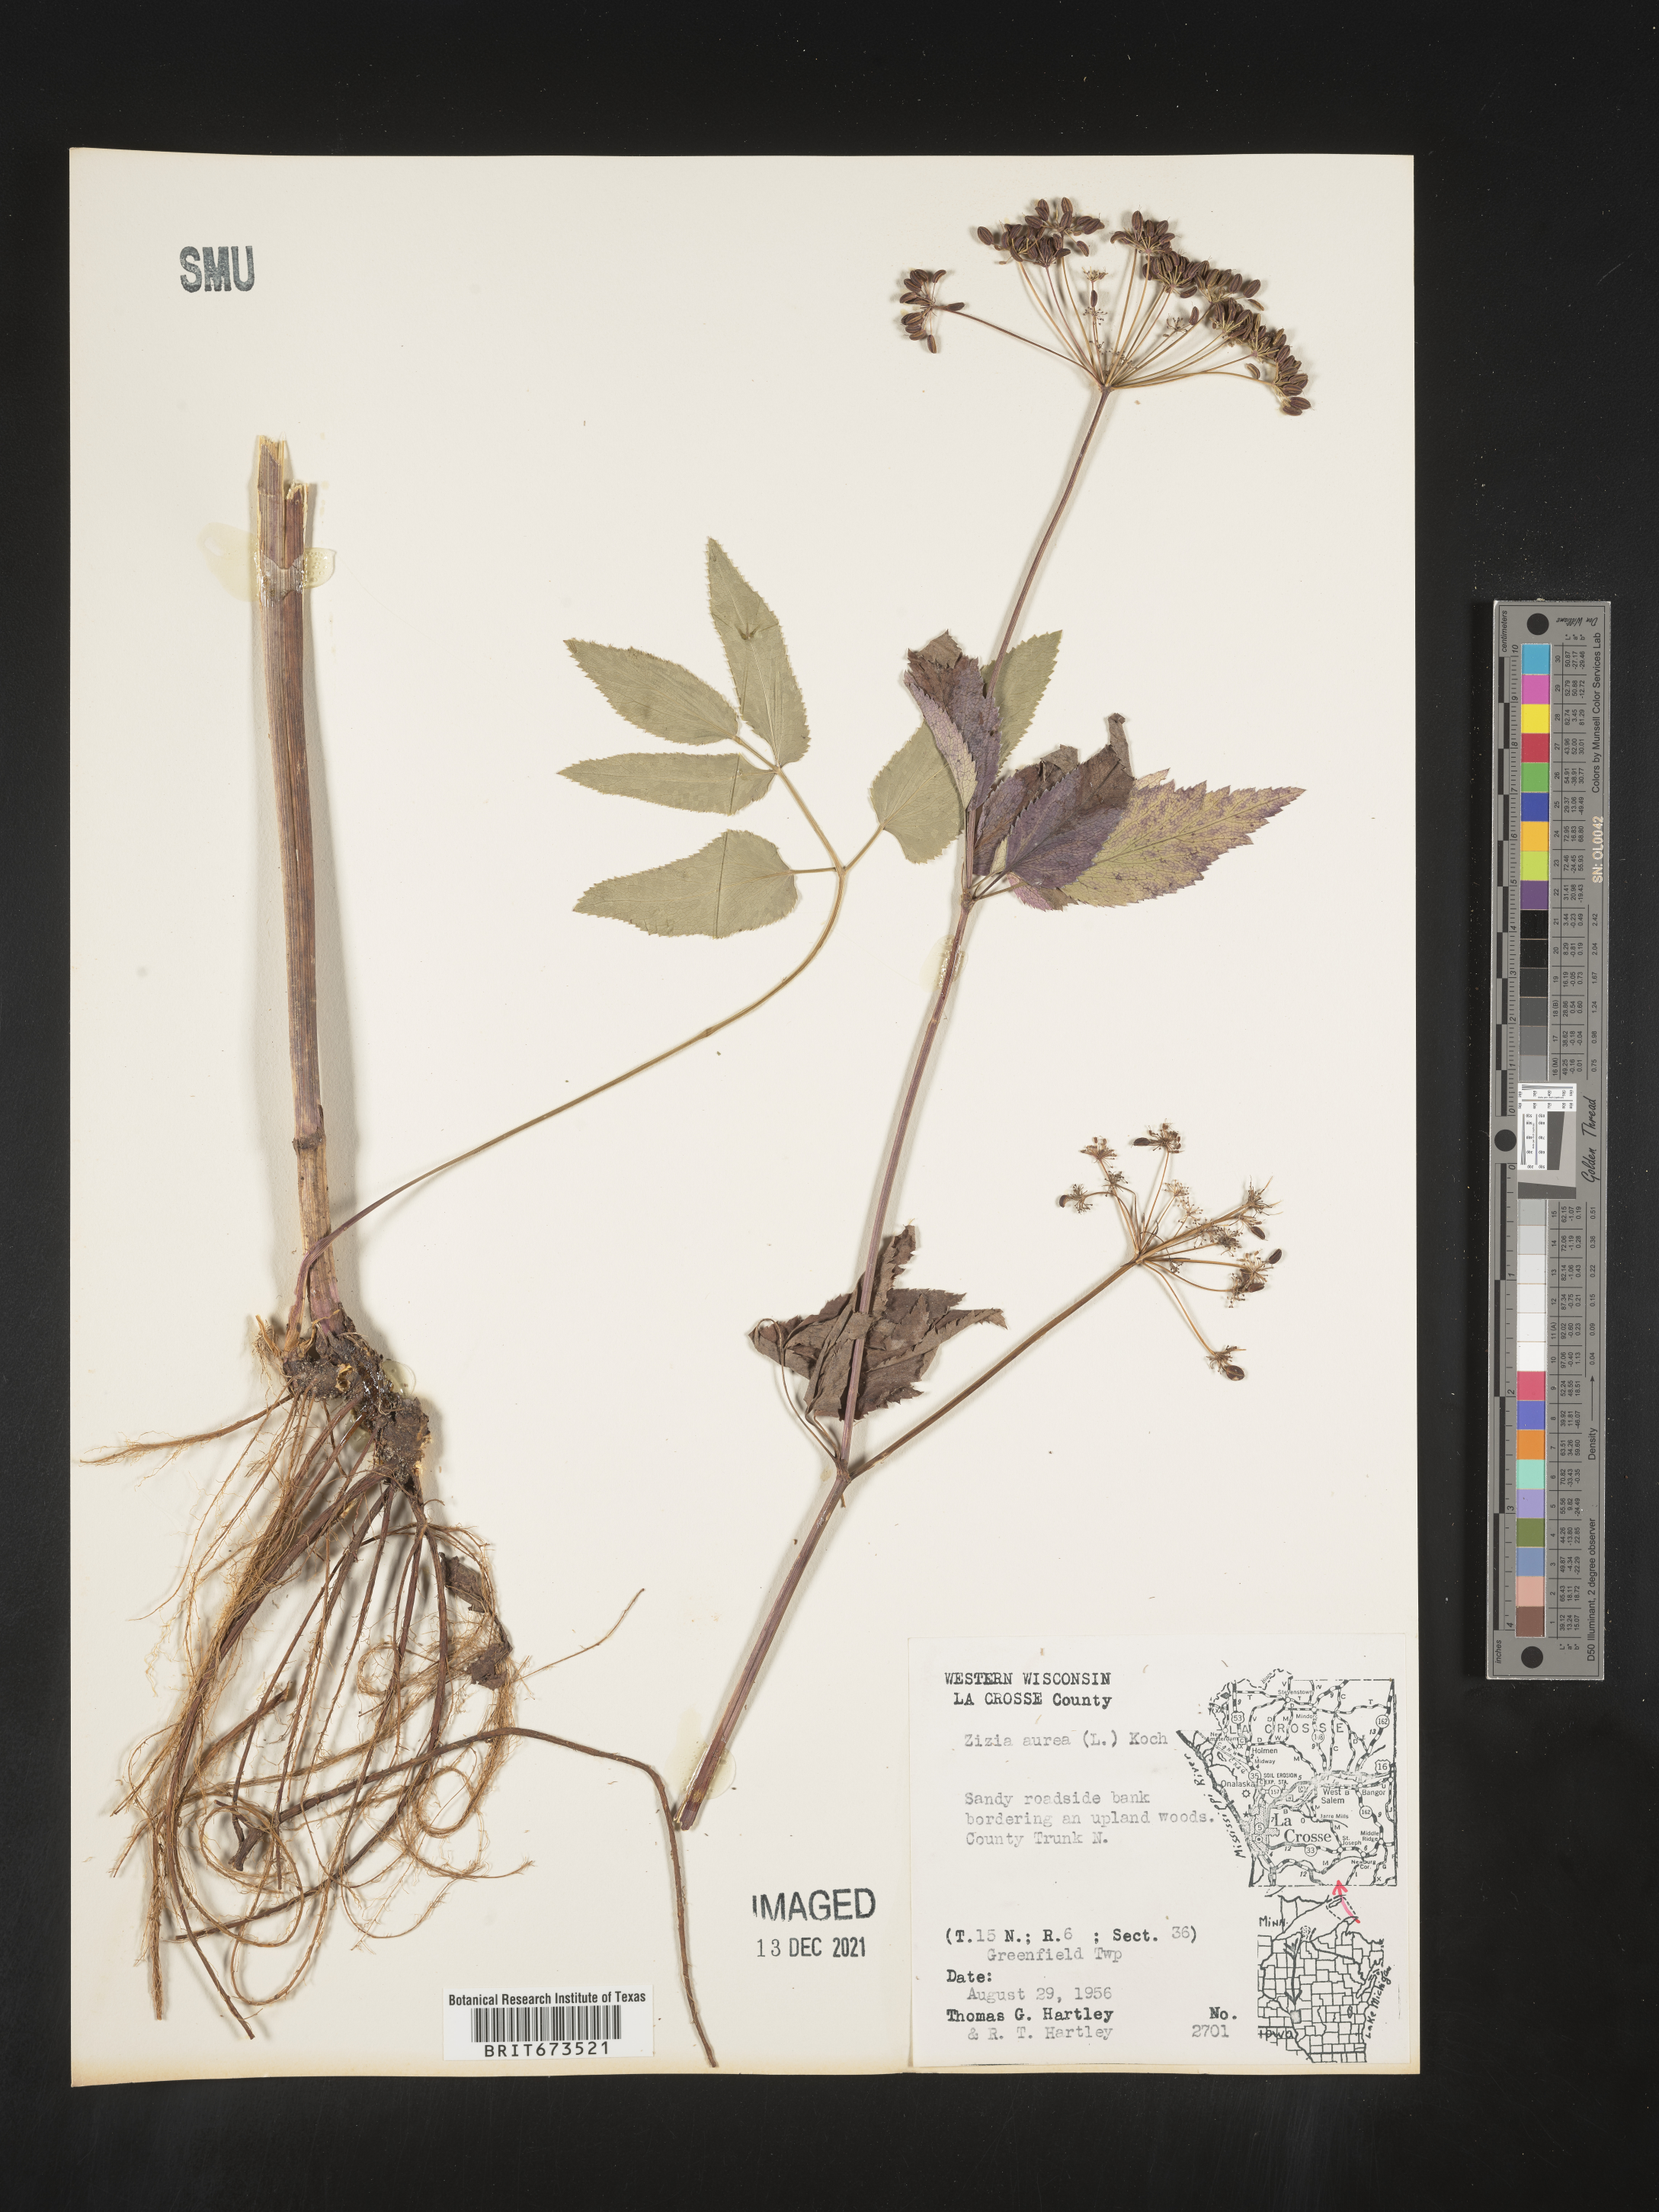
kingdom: Plantae
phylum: Tracheophyta
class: Magnoliopsida
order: Apiales
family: Apiaceae
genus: Zizia
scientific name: Zizia aurea
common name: Golden alexanders
